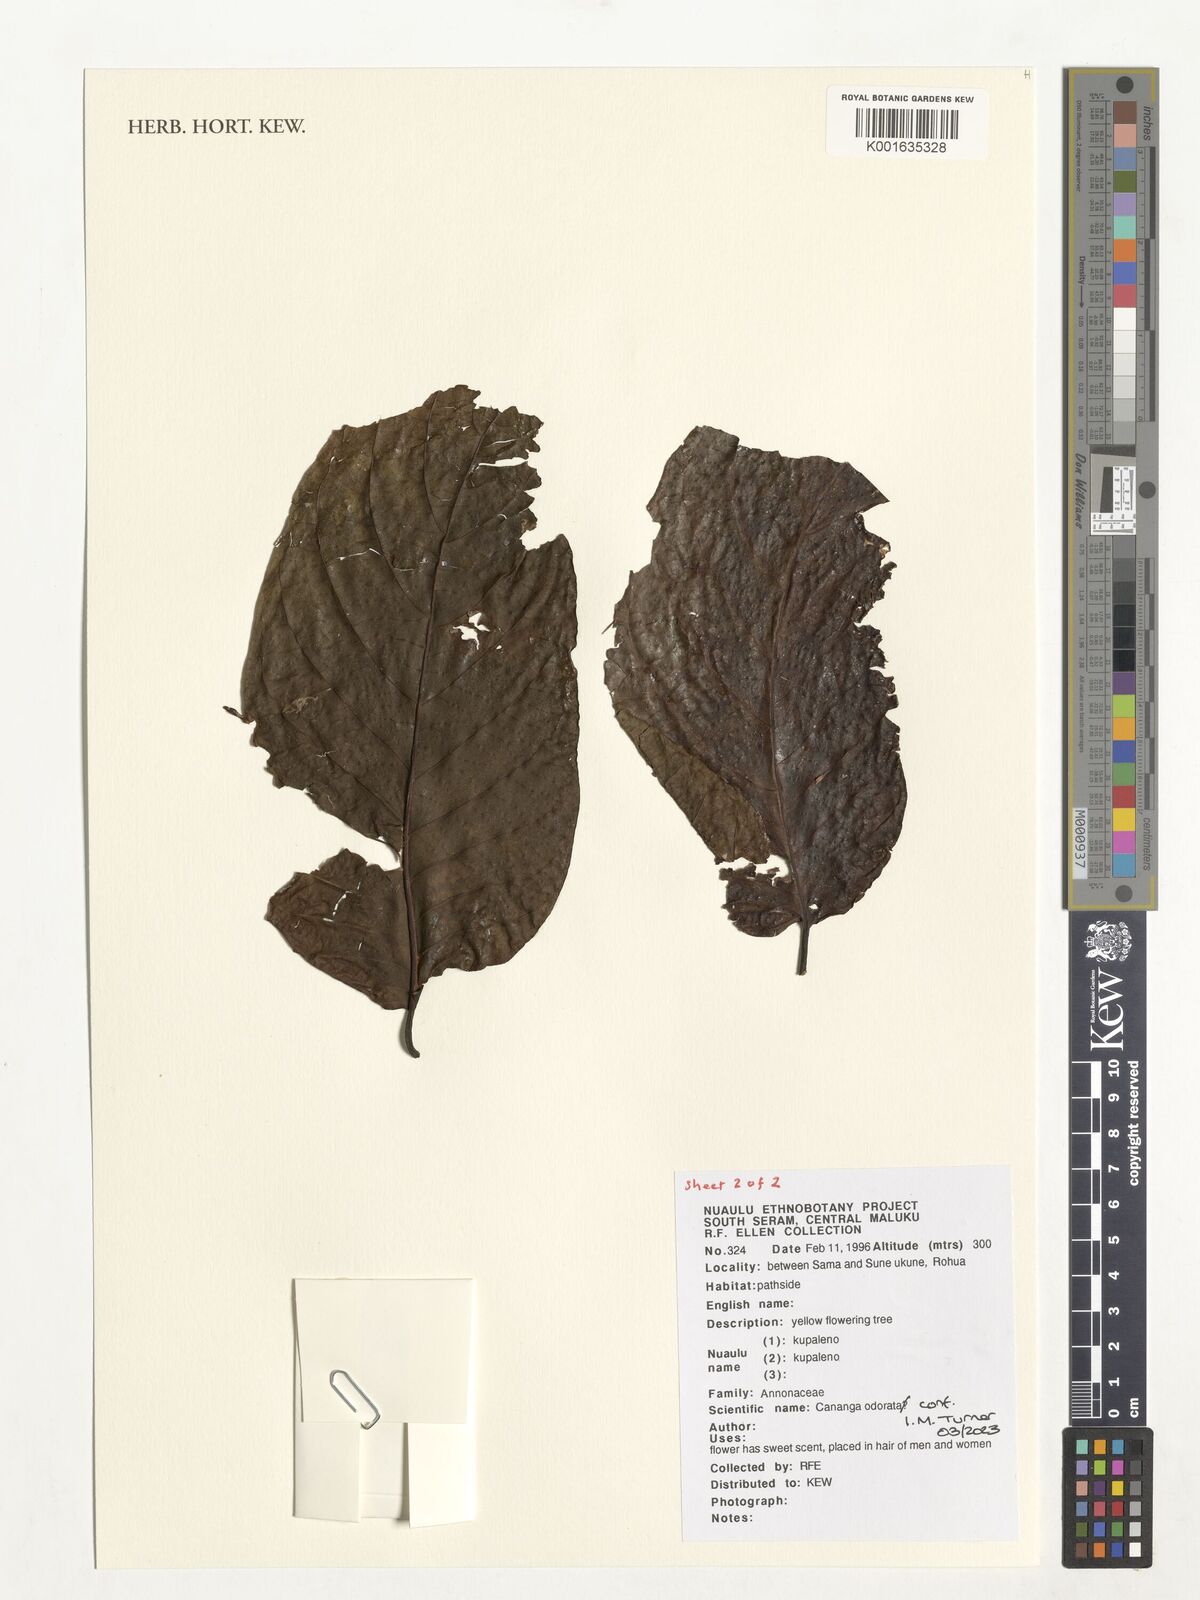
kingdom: Plantae
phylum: Tracheophyta
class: Magnoliopsida
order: Magnoliales
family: Annonaceae
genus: Cananga
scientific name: Cananga odorata
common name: Cananga tree
